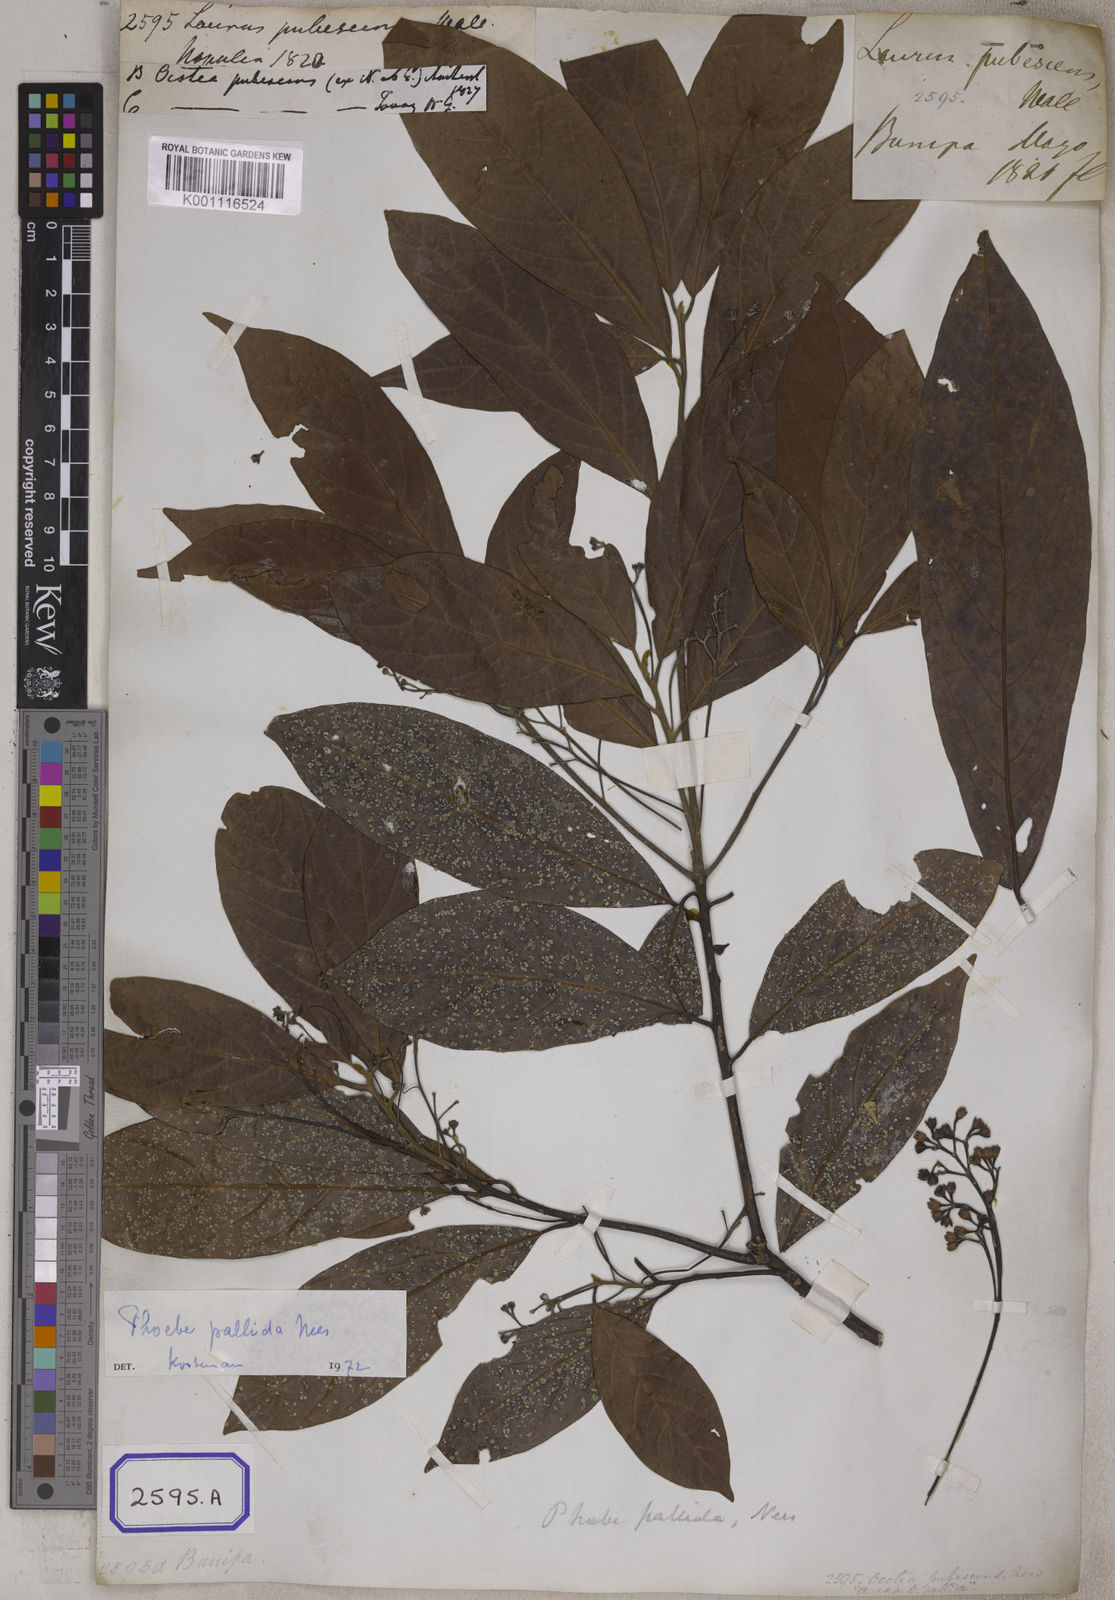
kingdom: Plantae
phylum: Tracheophyta
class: Magnoliopsida
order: Laurales
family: Lauraceae
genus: Phoebe
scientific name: Phoebe pallida
